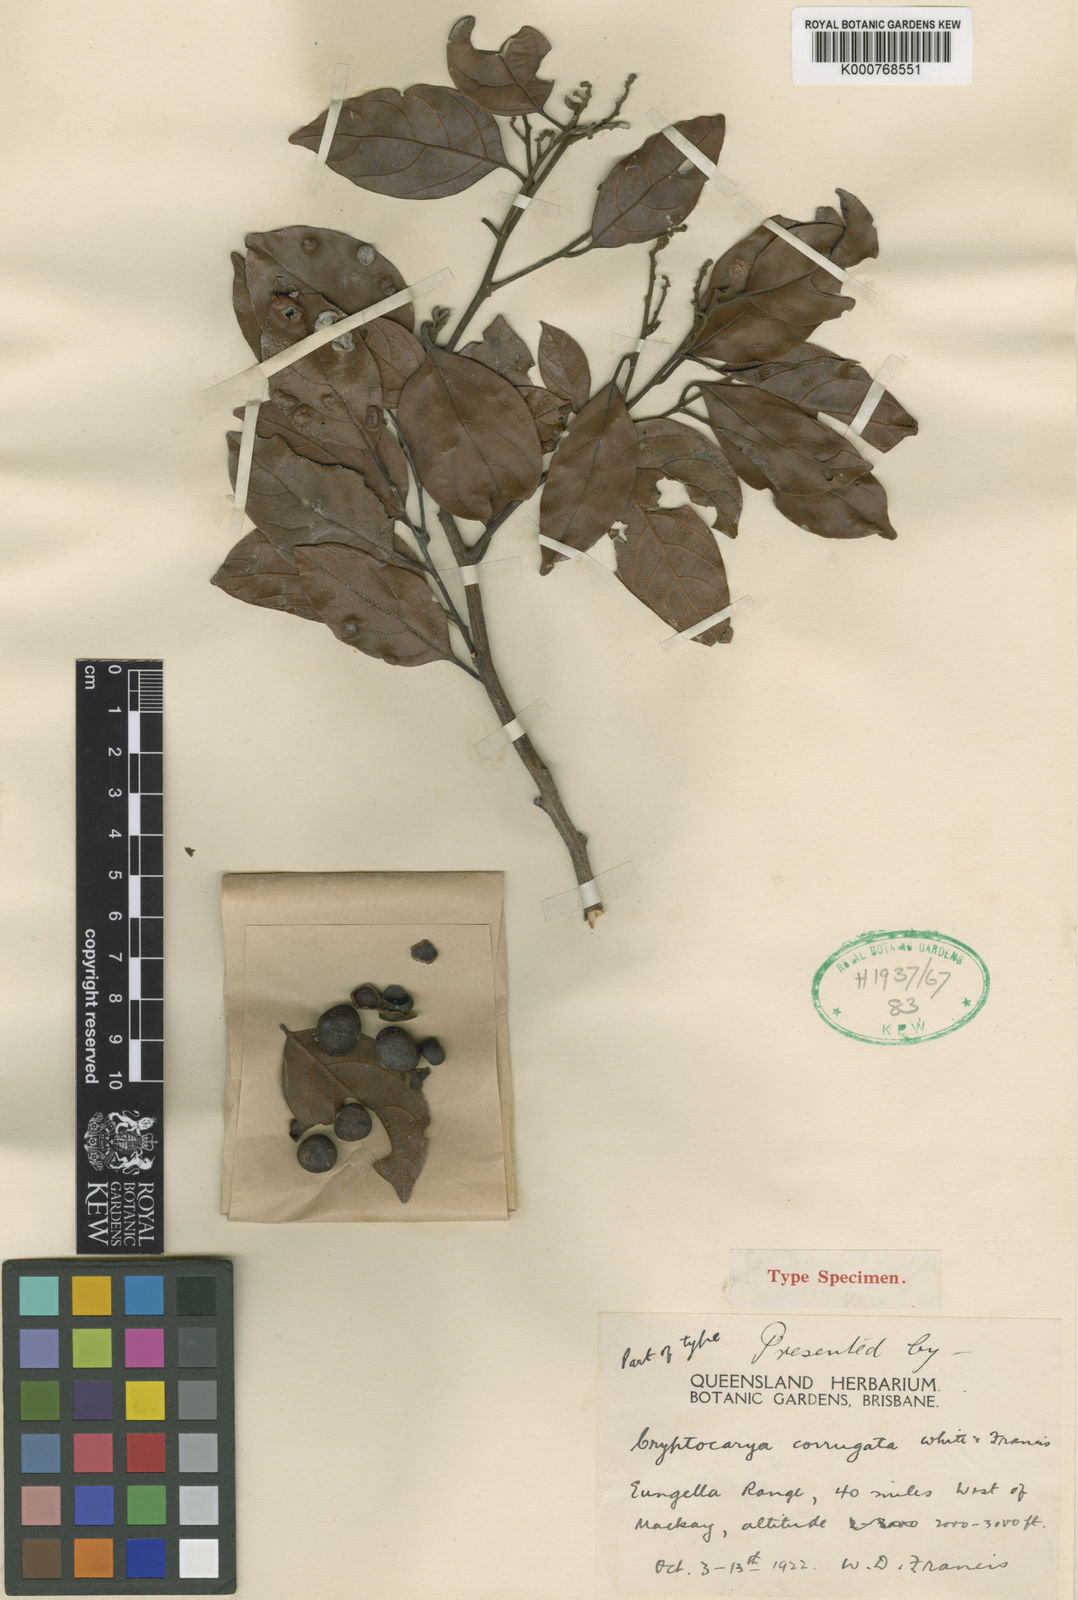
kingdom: Plantae
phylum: Tracheophyta
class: Magnoliopsida
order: Laurales
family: Lauraceae
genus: Cryptocarya
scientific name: Cryptocarya corrugata
